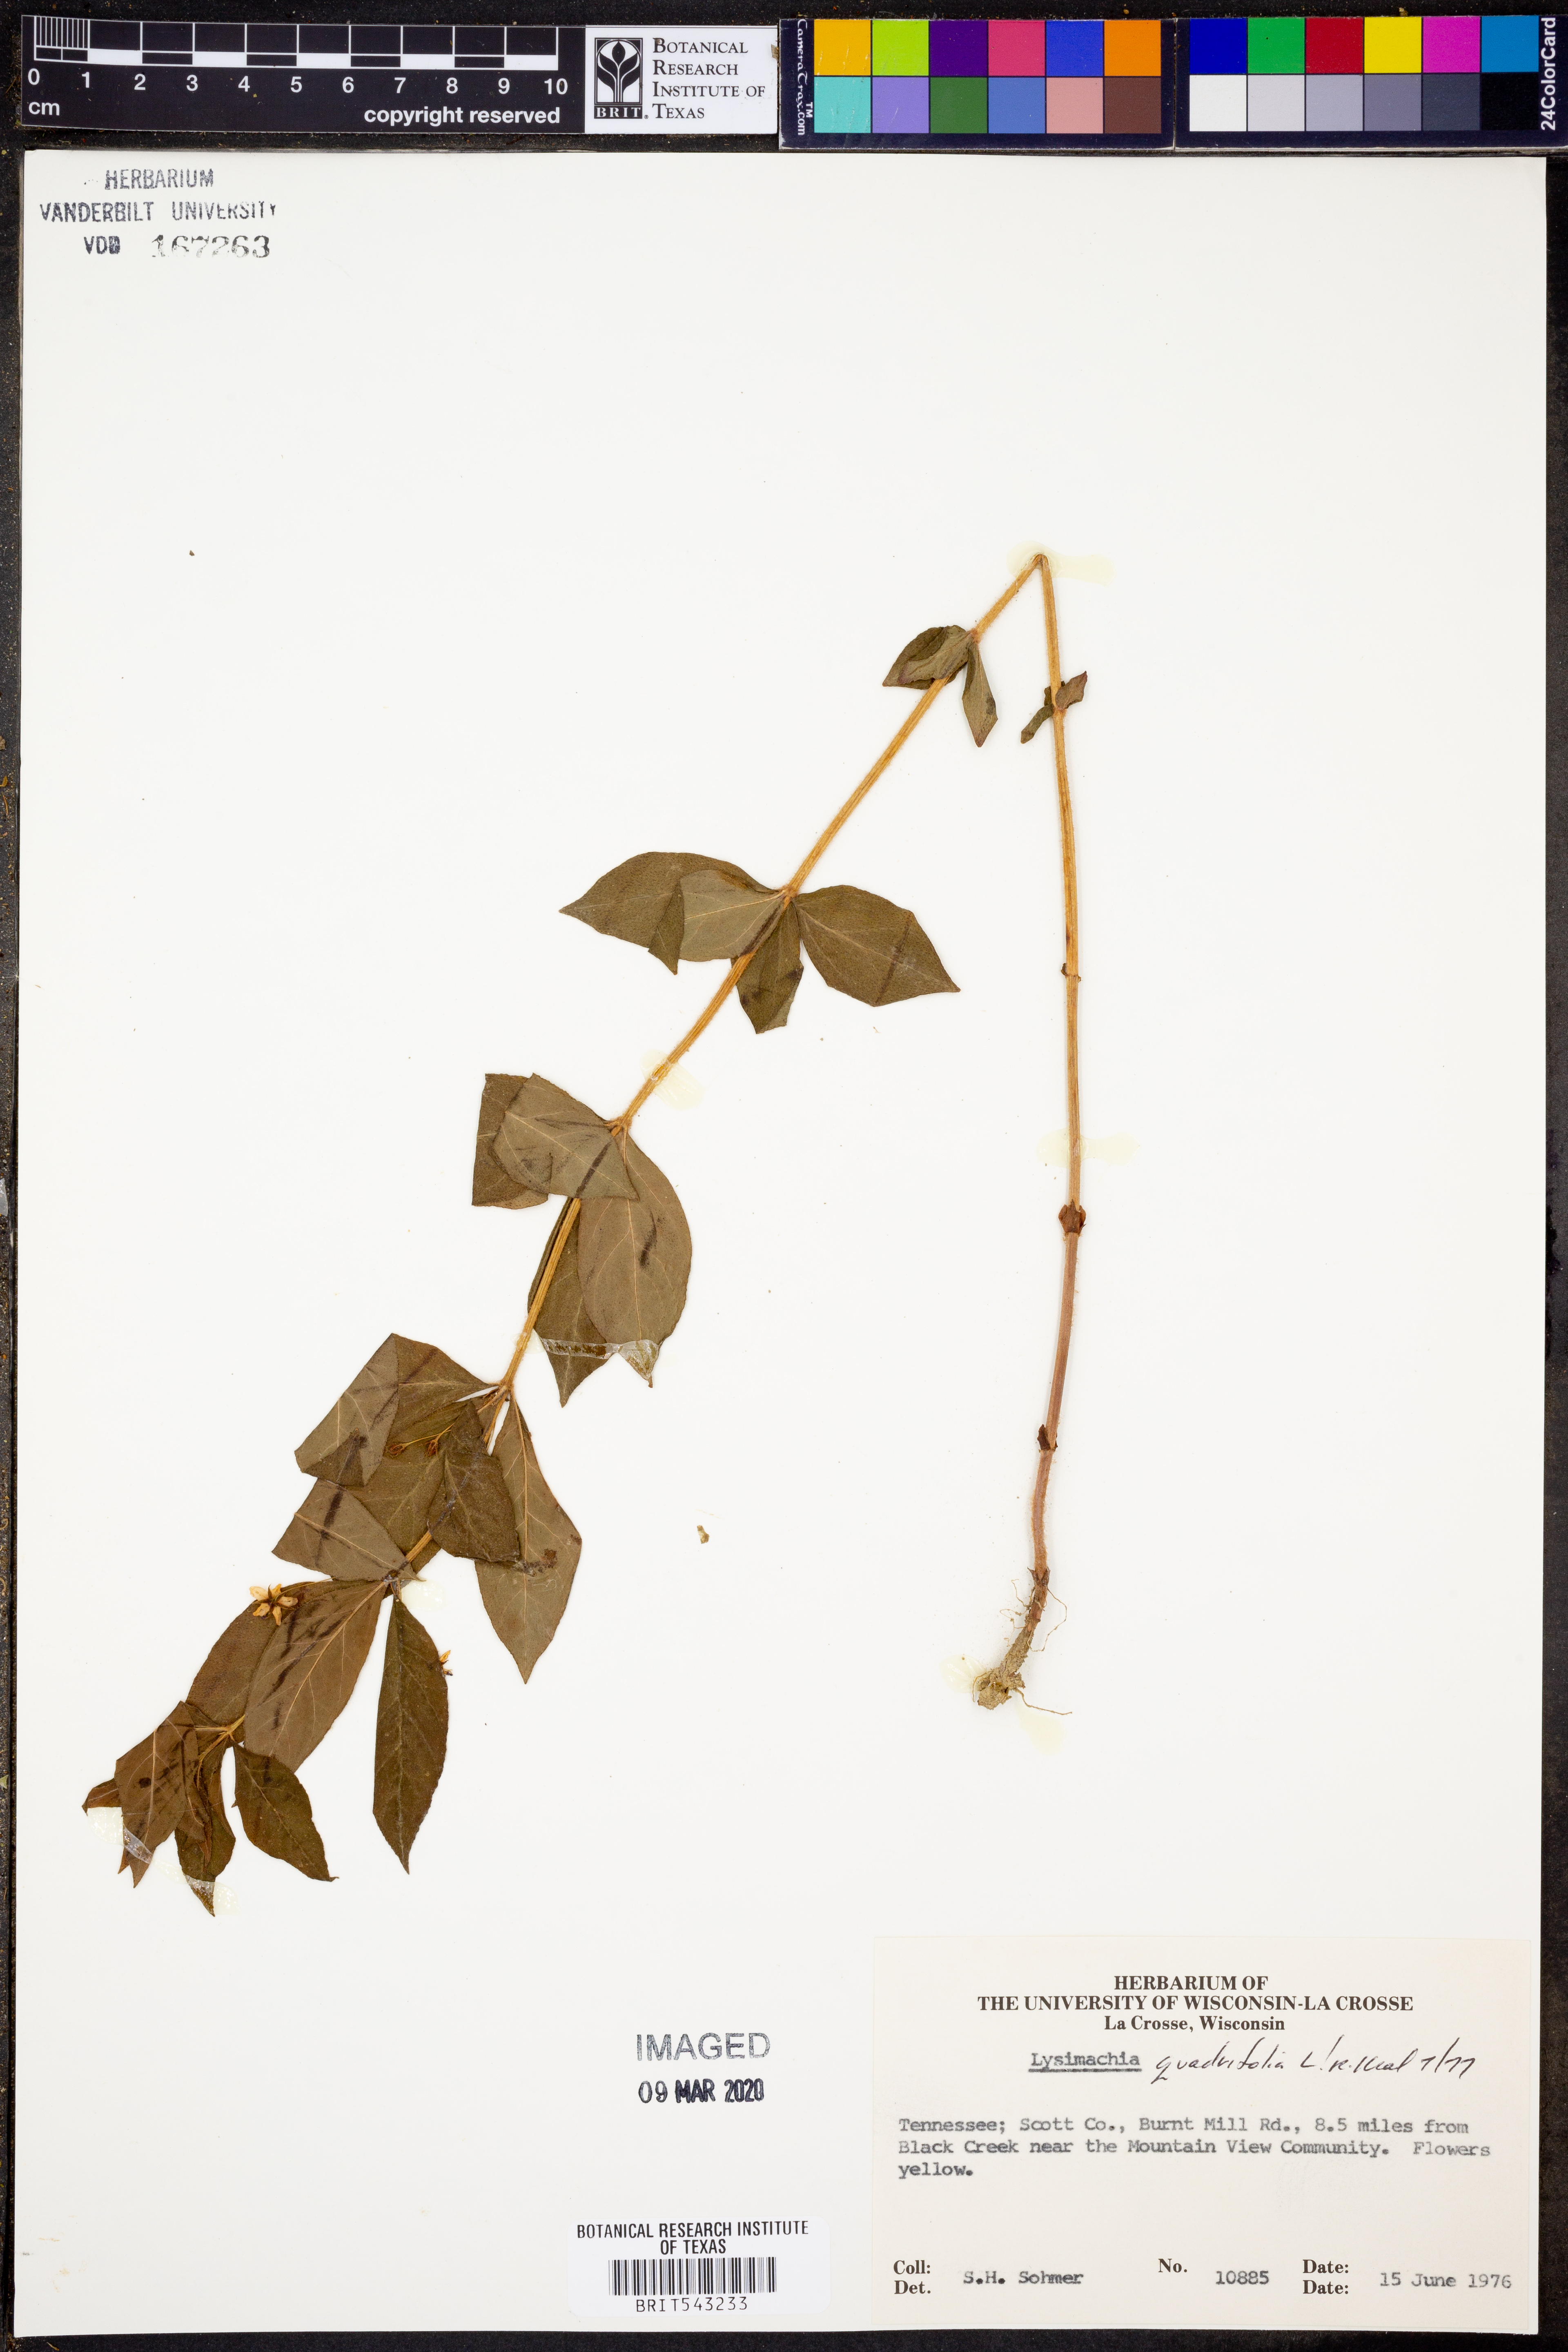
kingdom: Plantae
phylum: Tracheophyta
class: Magnoliopsida
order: Ericales
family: Primulaceae
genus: Lysimachia
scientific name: Lysimachia quadrifolia
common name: Whorled loosestrife
